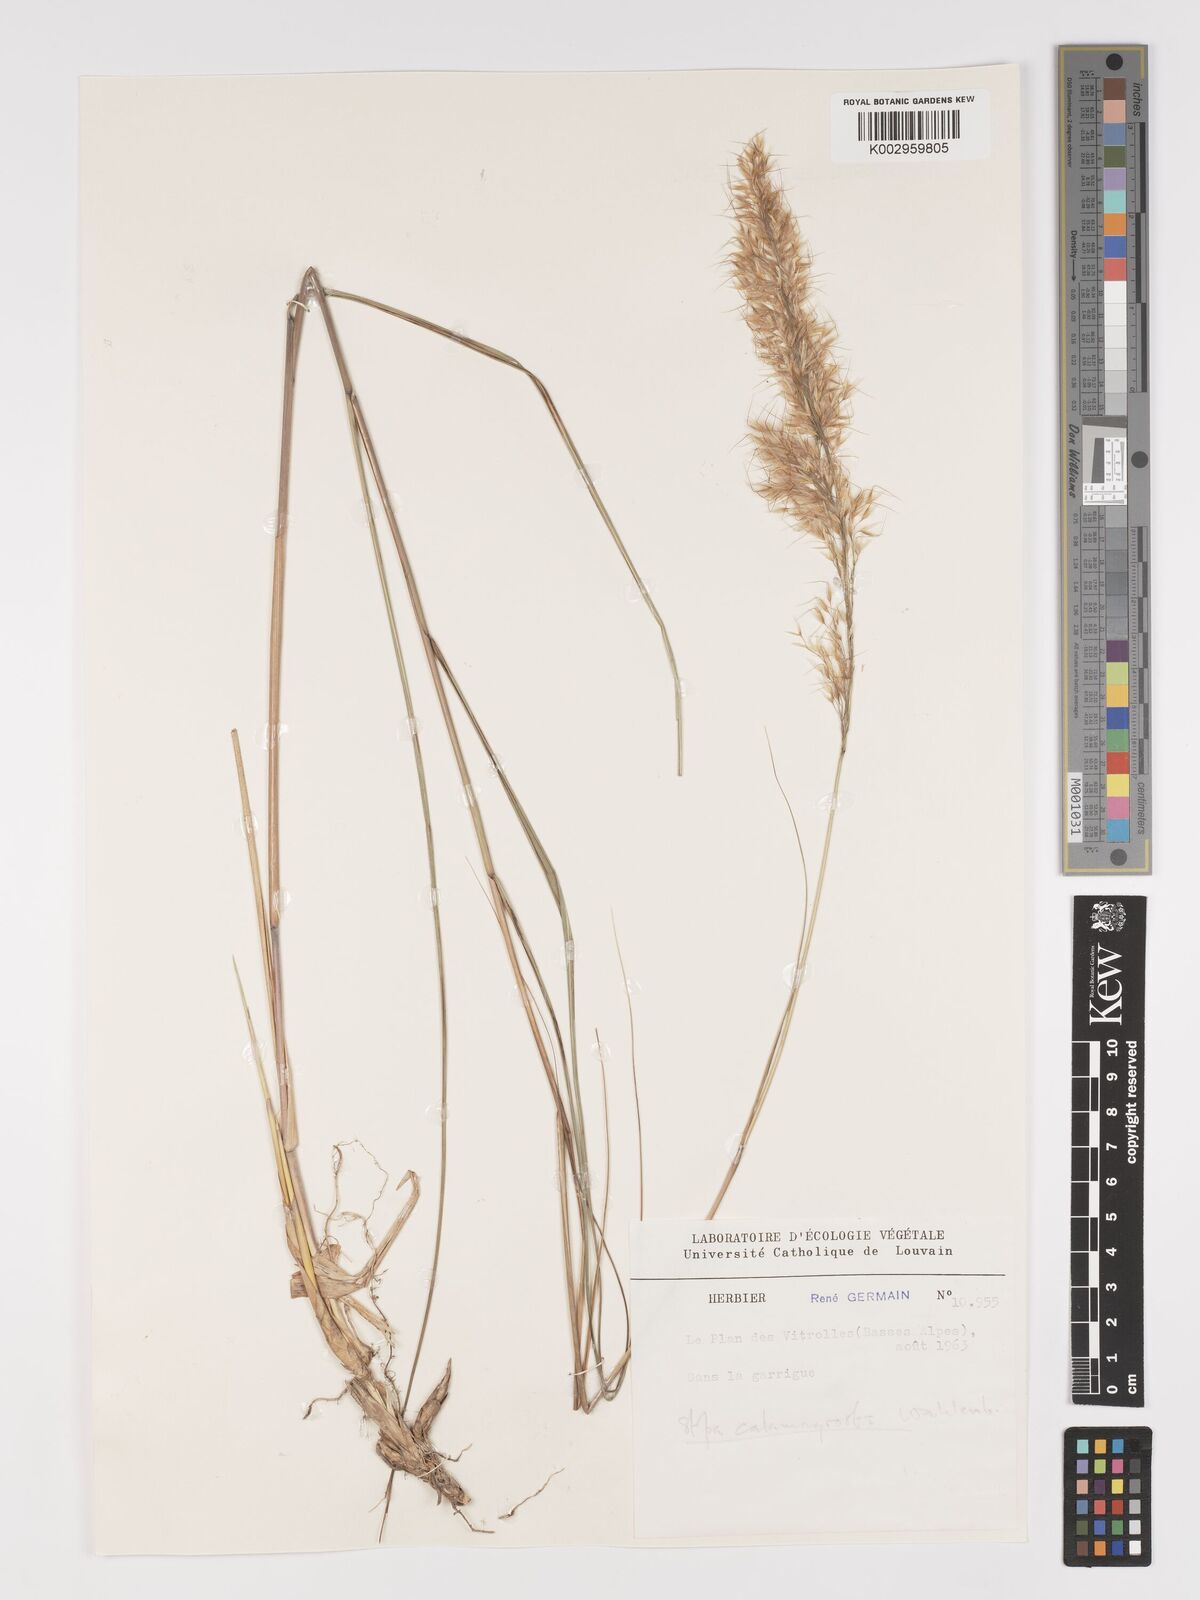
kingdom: Plantae
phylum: Tracheophyta
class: Liliopsida
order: Poales
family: Poaceae
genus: Achnatherum
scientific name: Achnatherum calamagrostis
